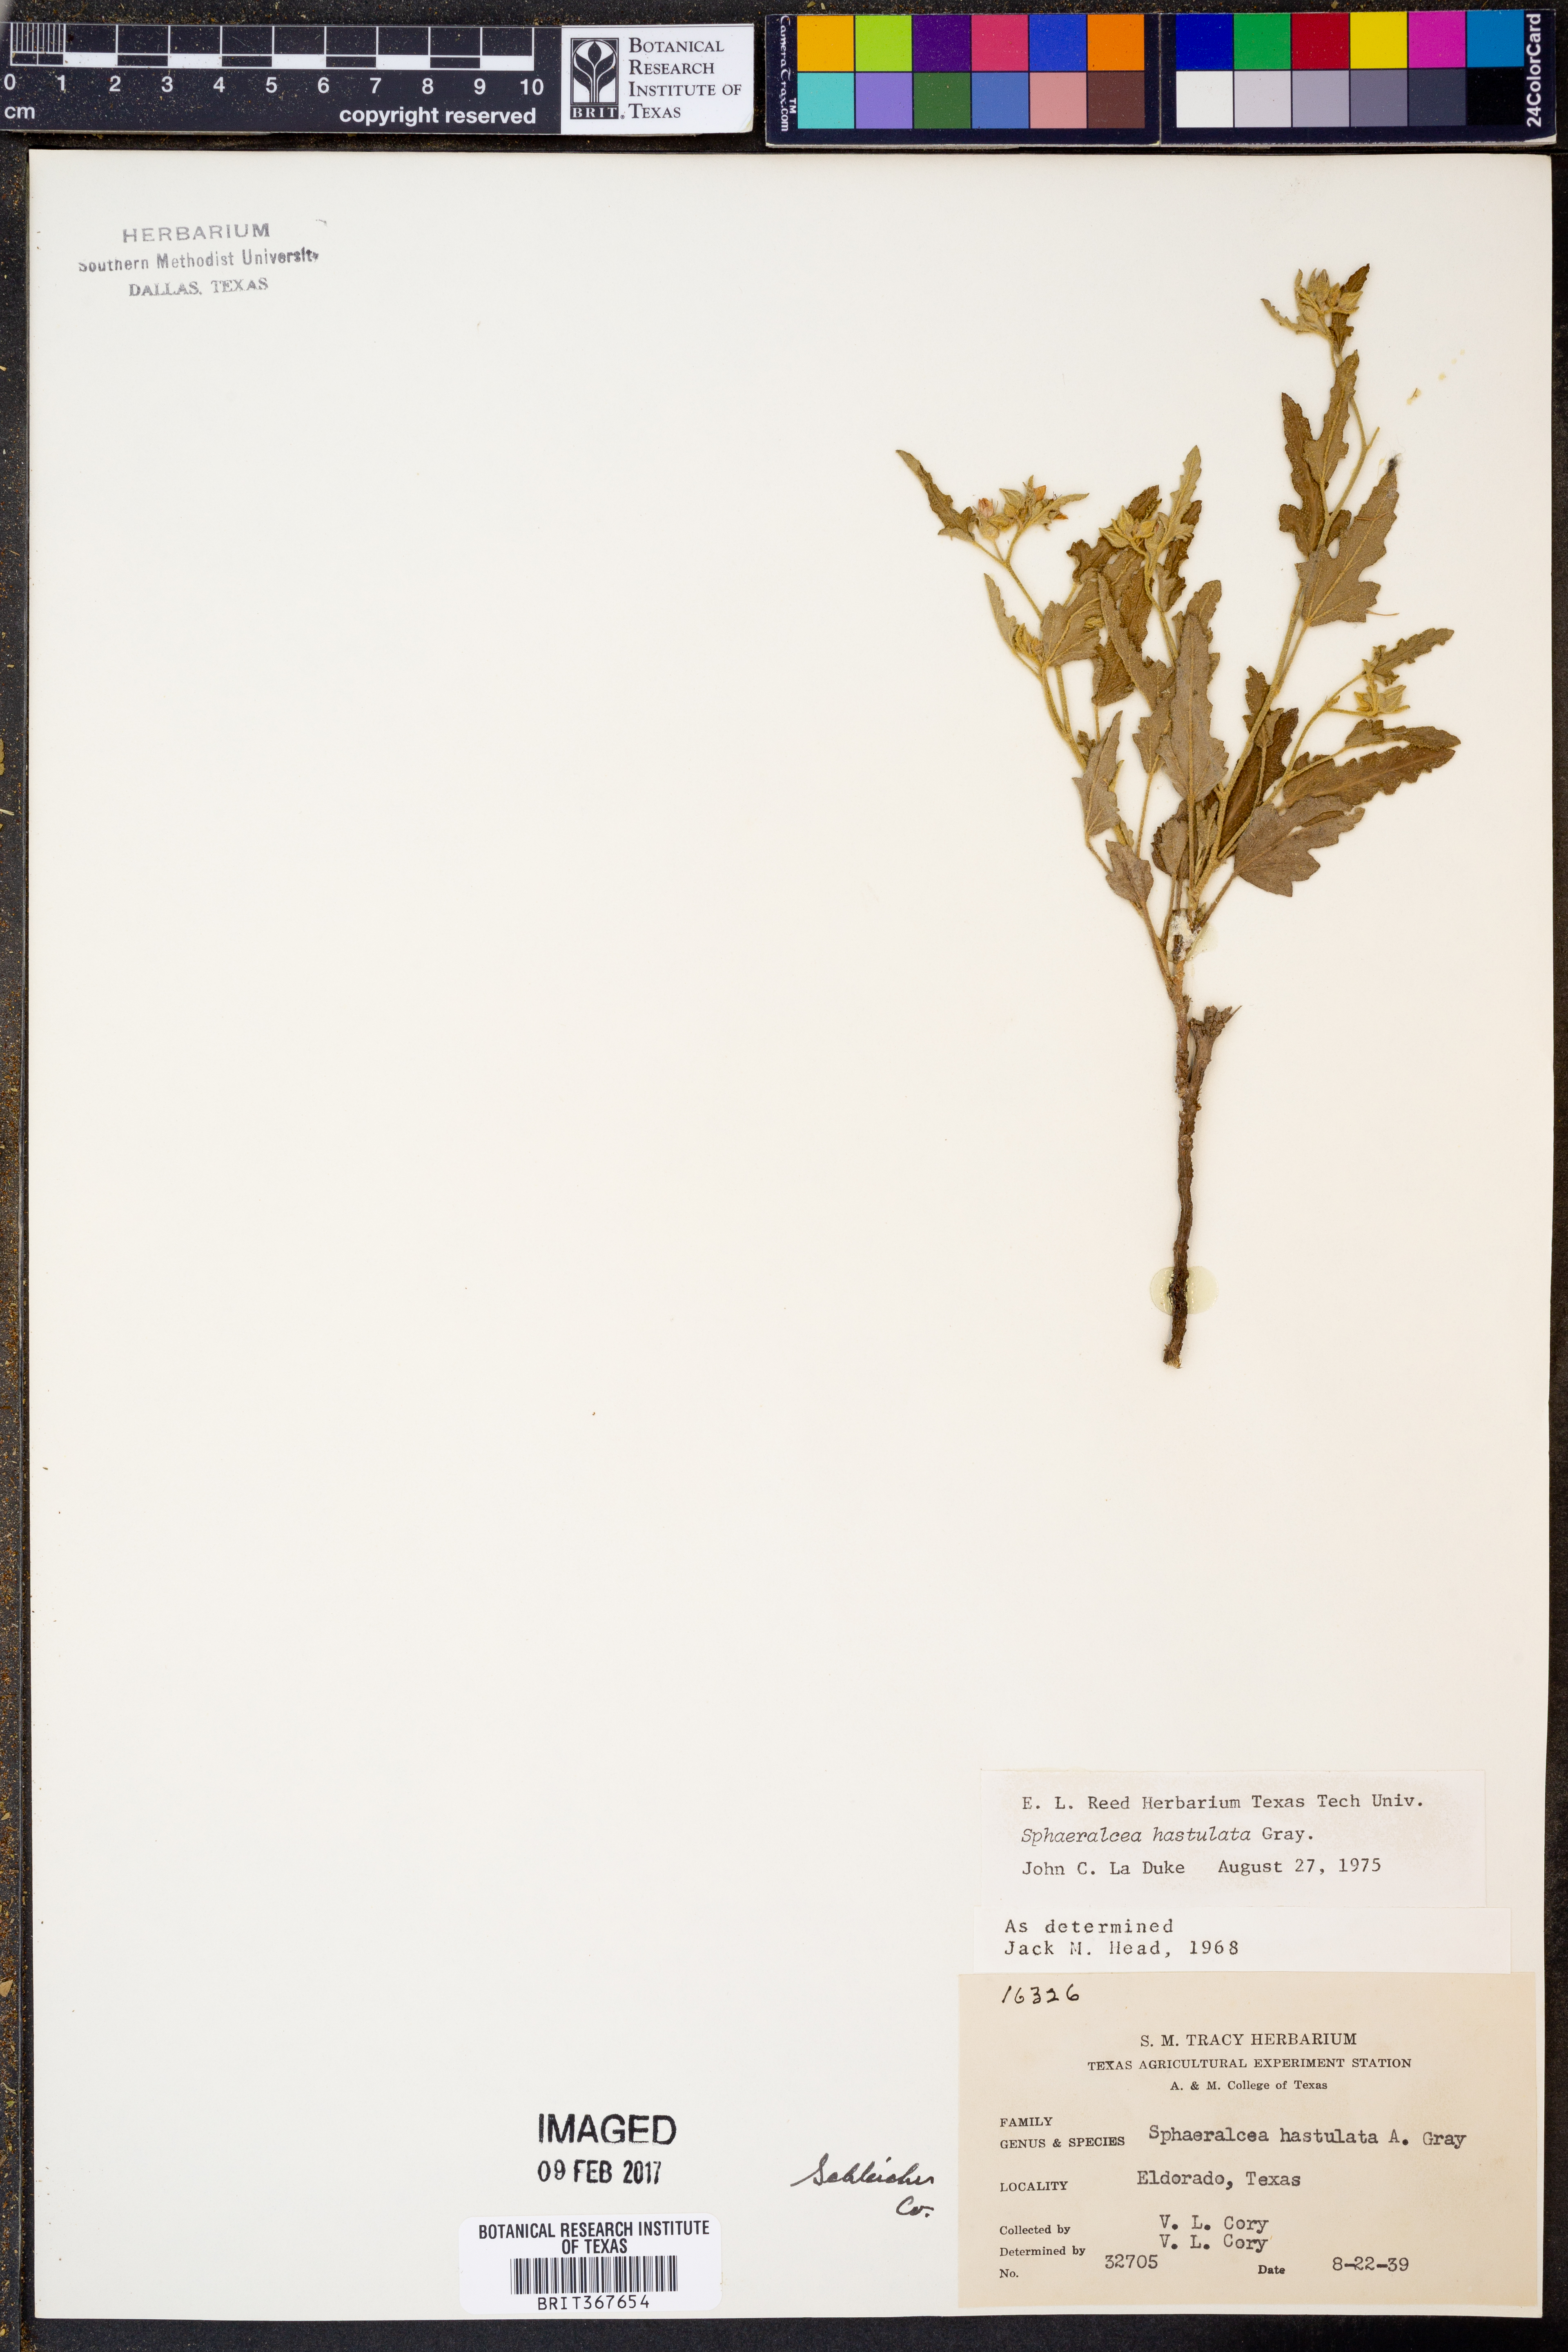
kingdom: Plantae
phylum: Tracheophyta
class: Magnoliopsida
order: Malvales
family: Malvaceae
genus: Sphaeralcea
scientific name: Sphaeralcea hastulata
